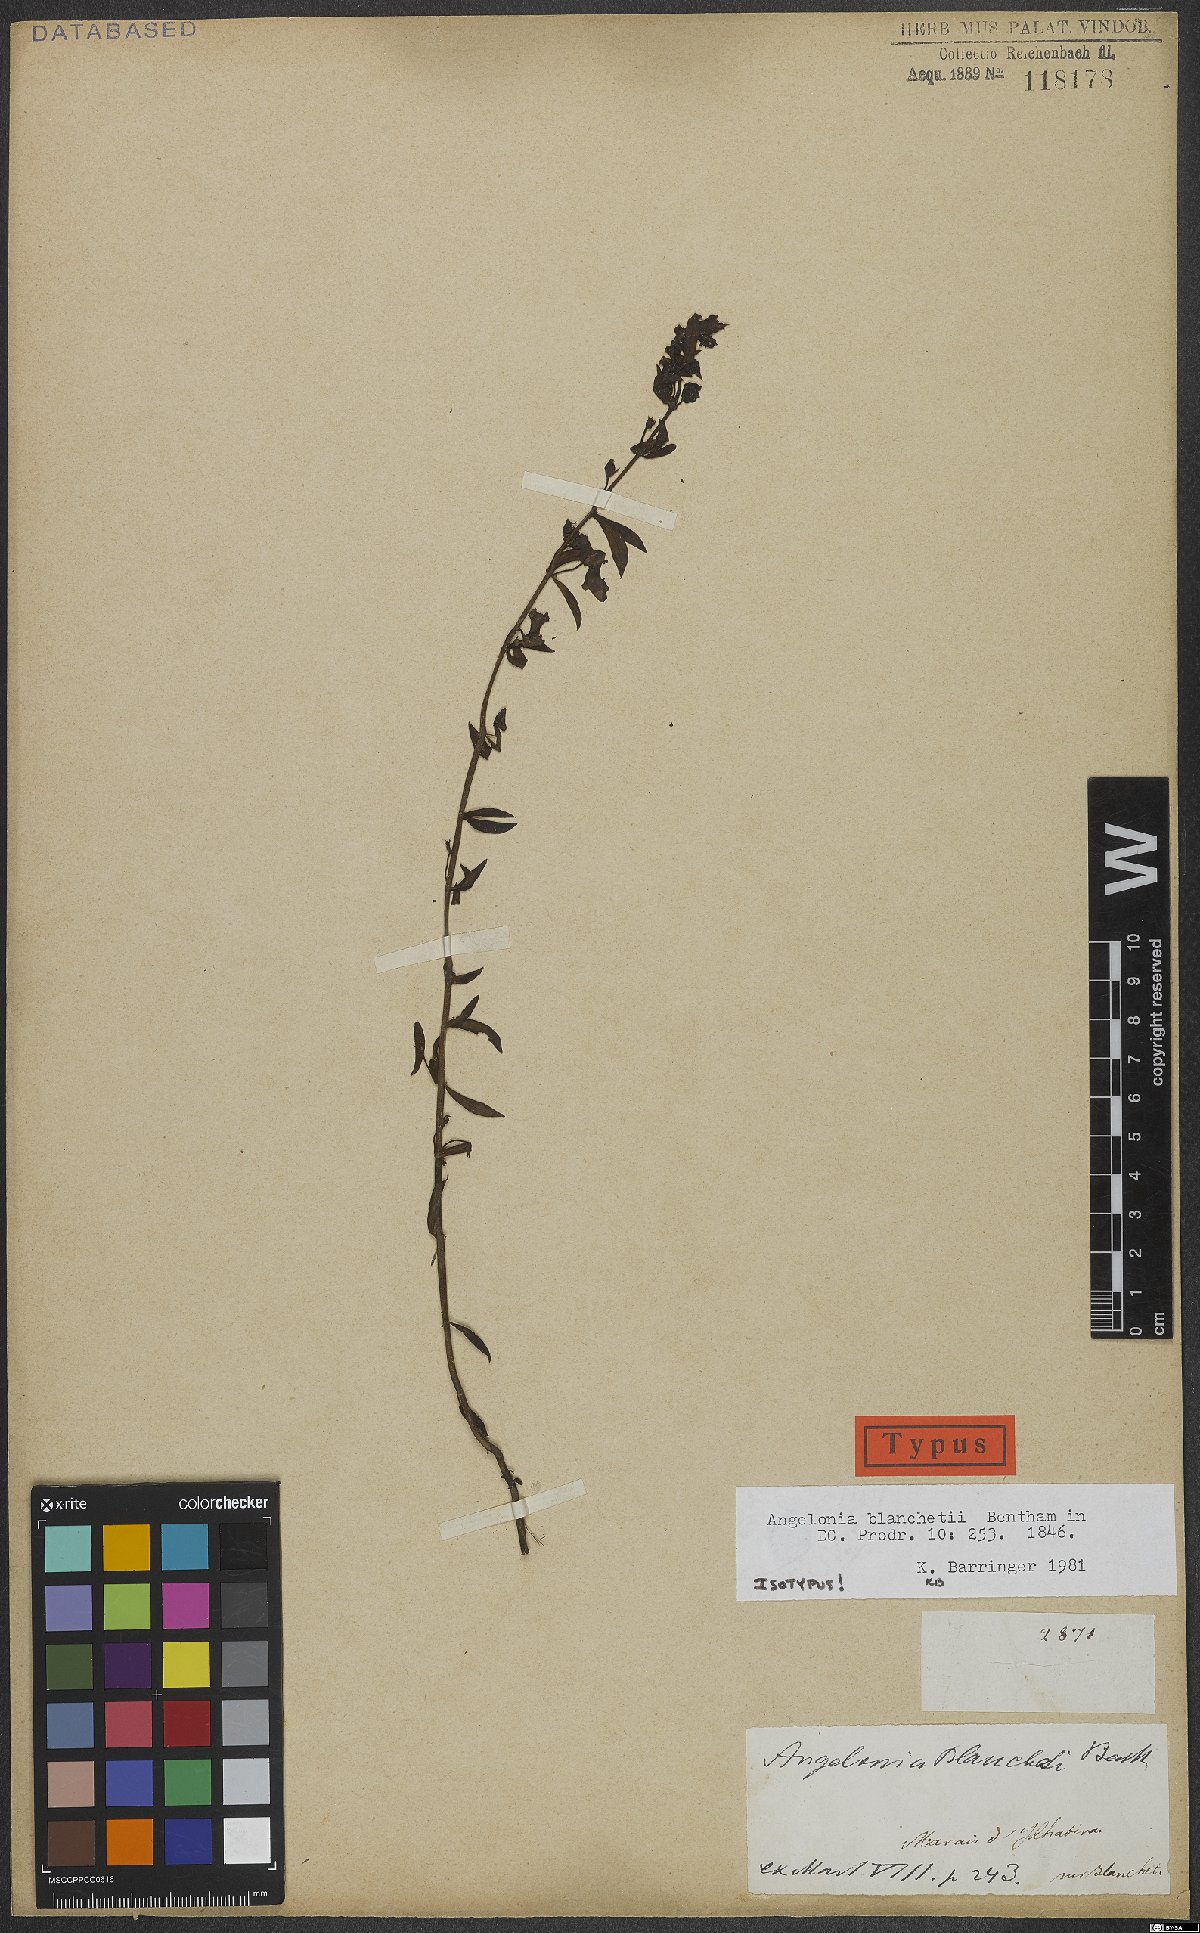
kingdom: Plantae
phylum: Tracheophyta
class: Magnoliopsida
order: Lamiales
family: Plantaginaceae
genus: Angelonia
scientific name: Angelonia blanchetii
